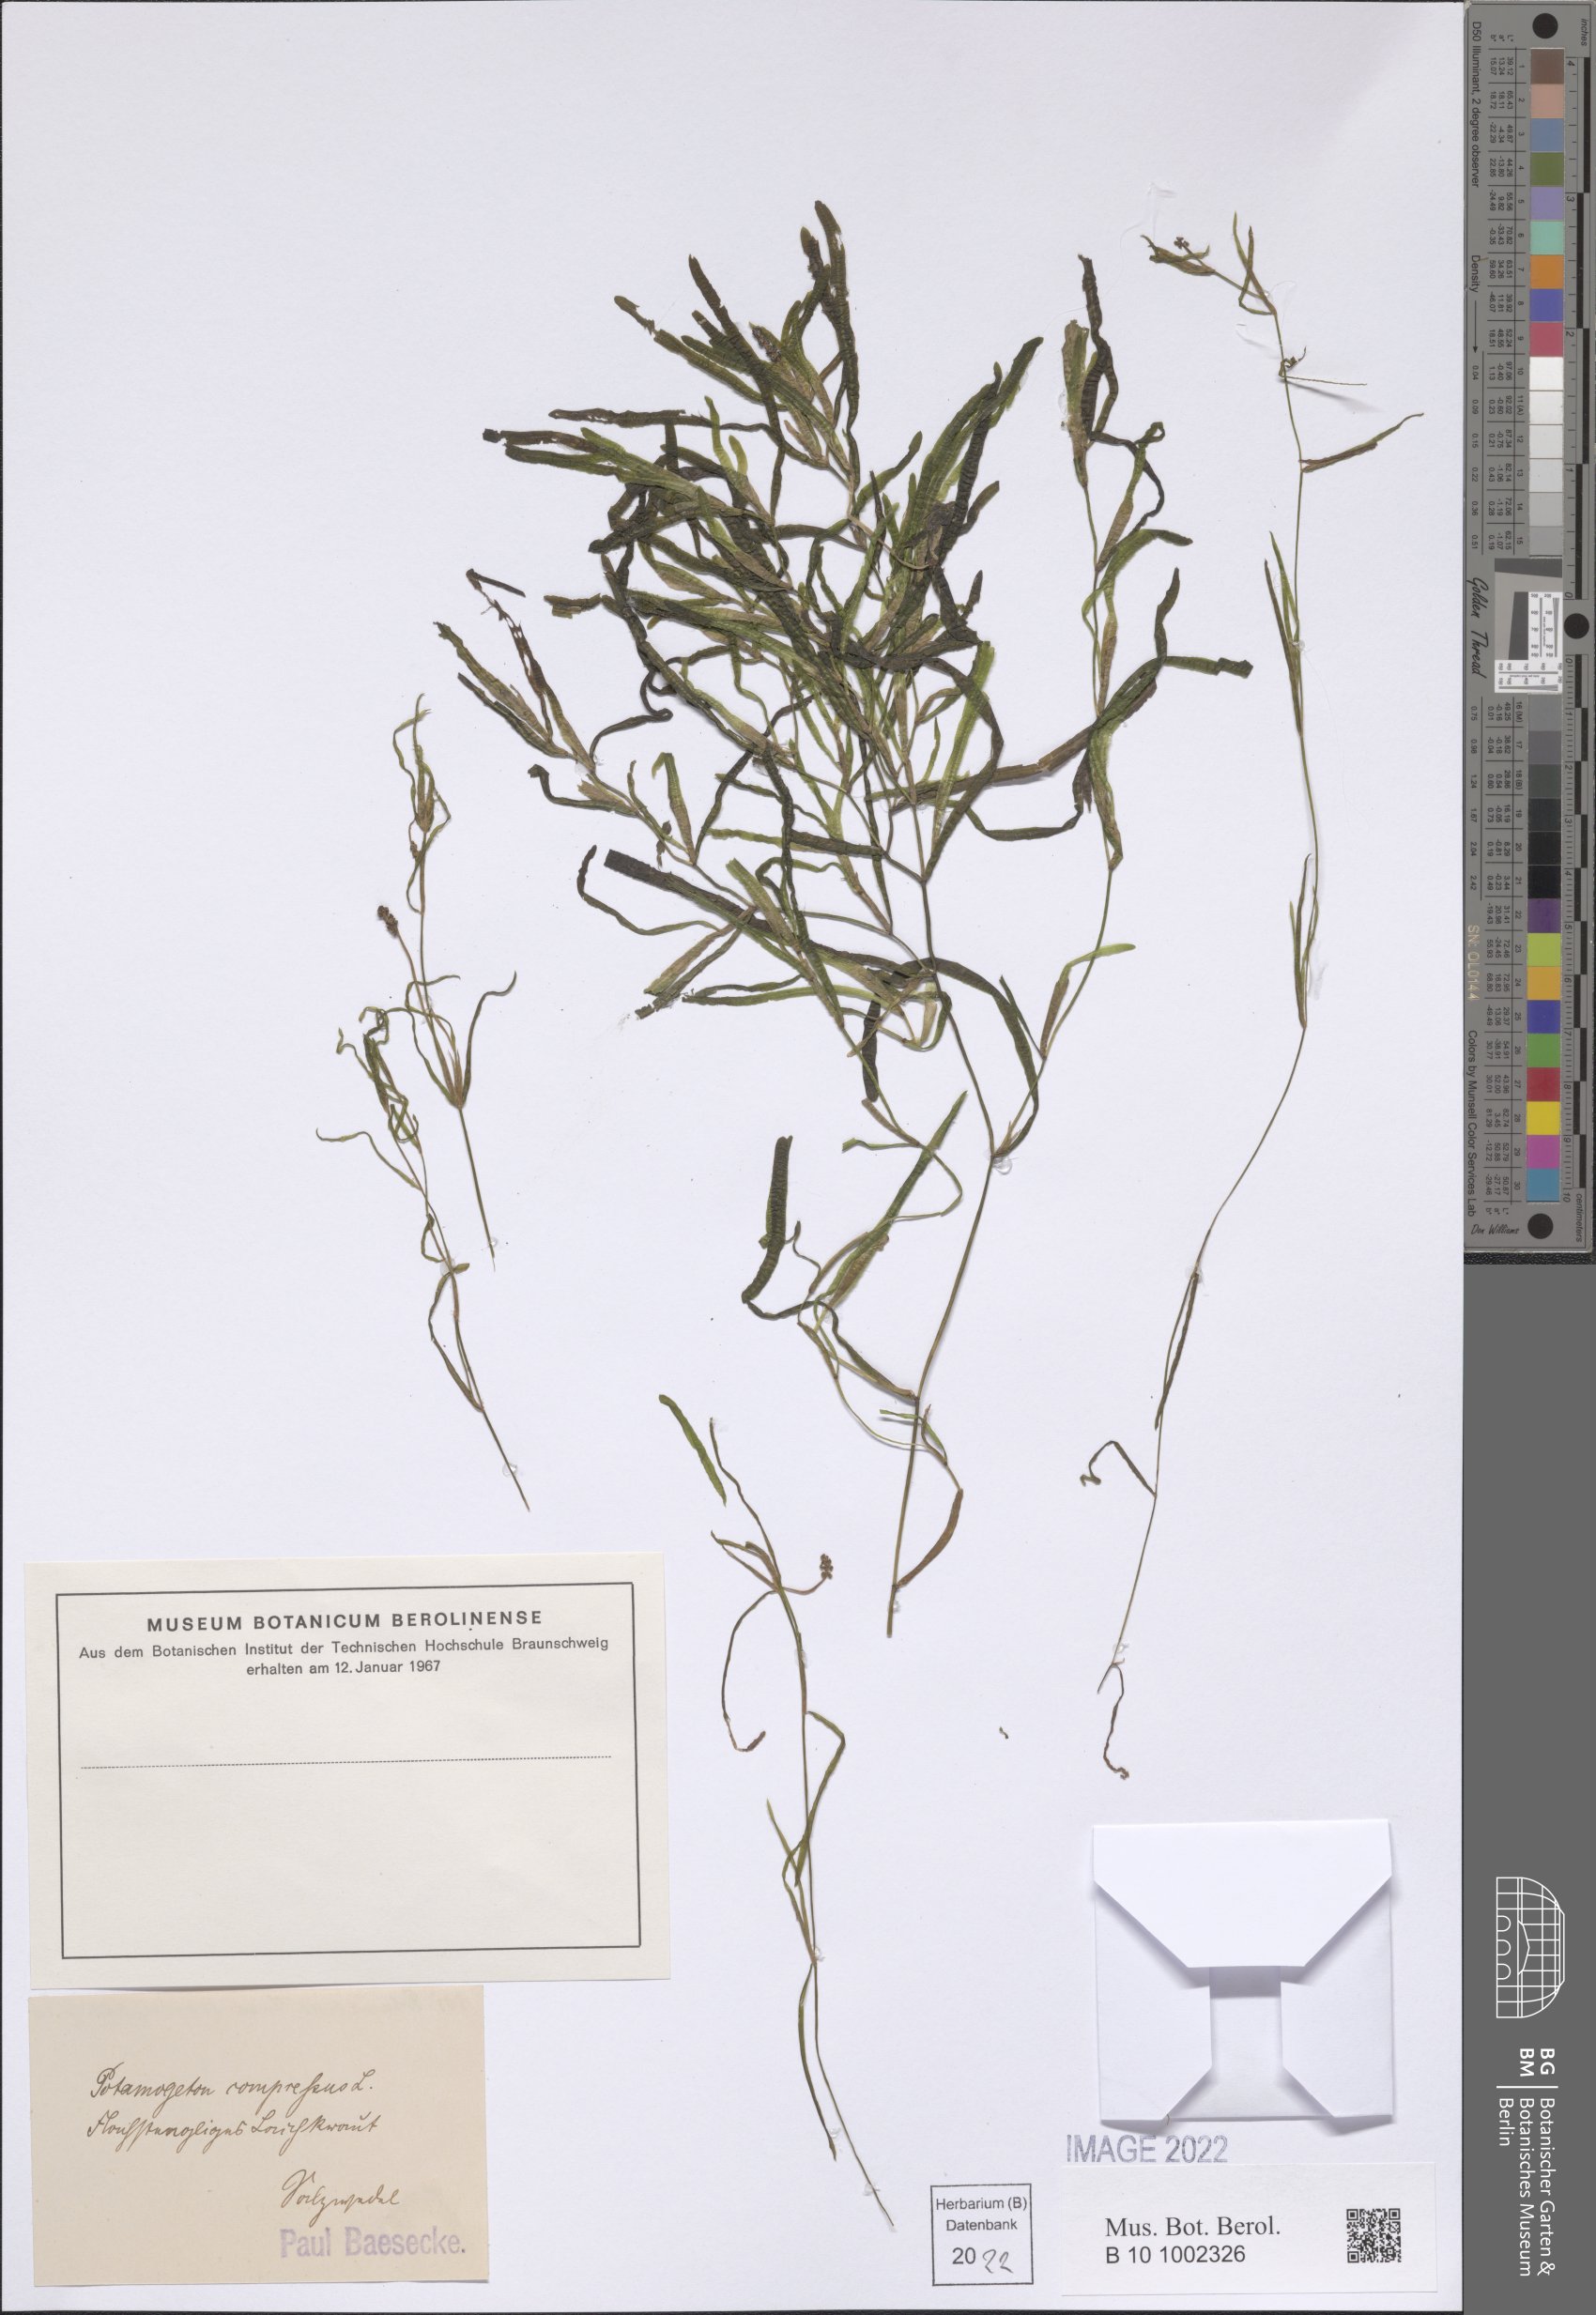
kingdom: Plantae
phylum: Tracheophyta
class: Liliopsida
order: Alismatales
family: Potamogetonaceae
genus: Potamogeton
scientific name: Potamogeton compressus
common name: Grass-wrack pondweed
